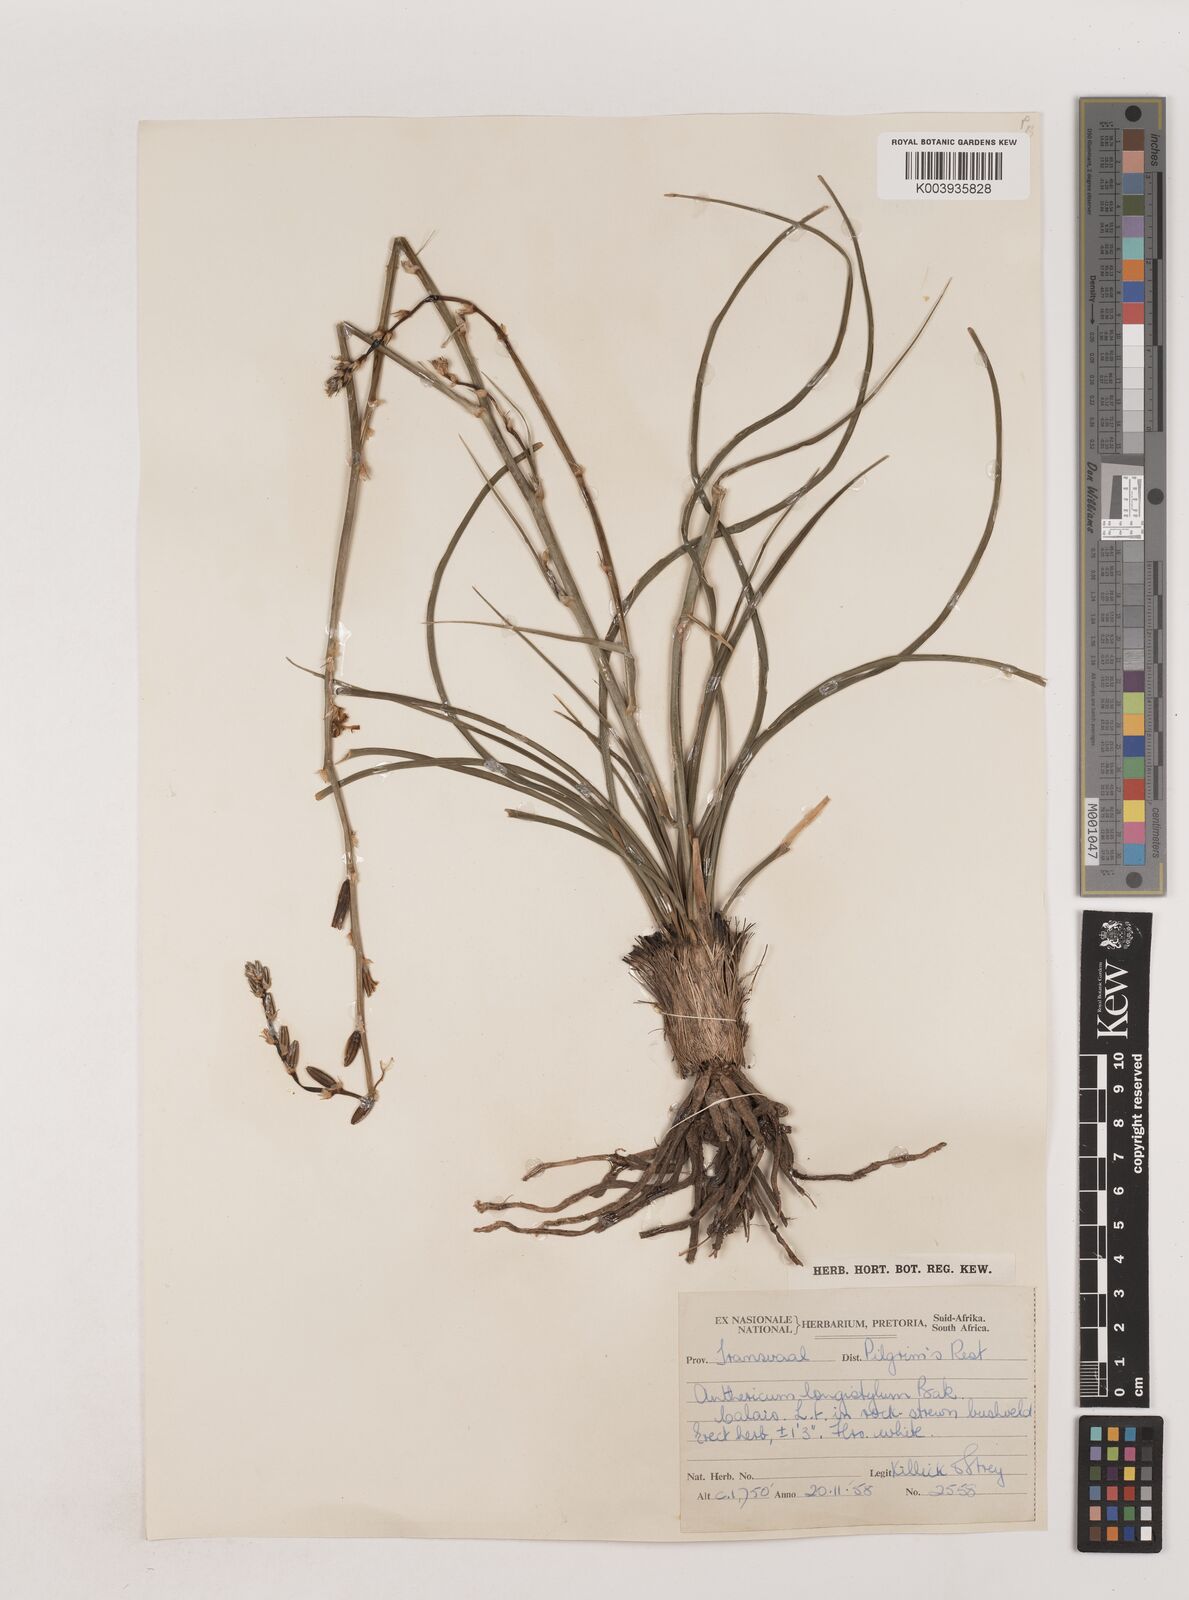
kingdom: Plantae
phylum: Tracheophyta
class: Liliopsida
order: Asparagales
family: Asparagaceae
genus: Chlorophytum
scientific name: Chlorophytum recurvifolium
